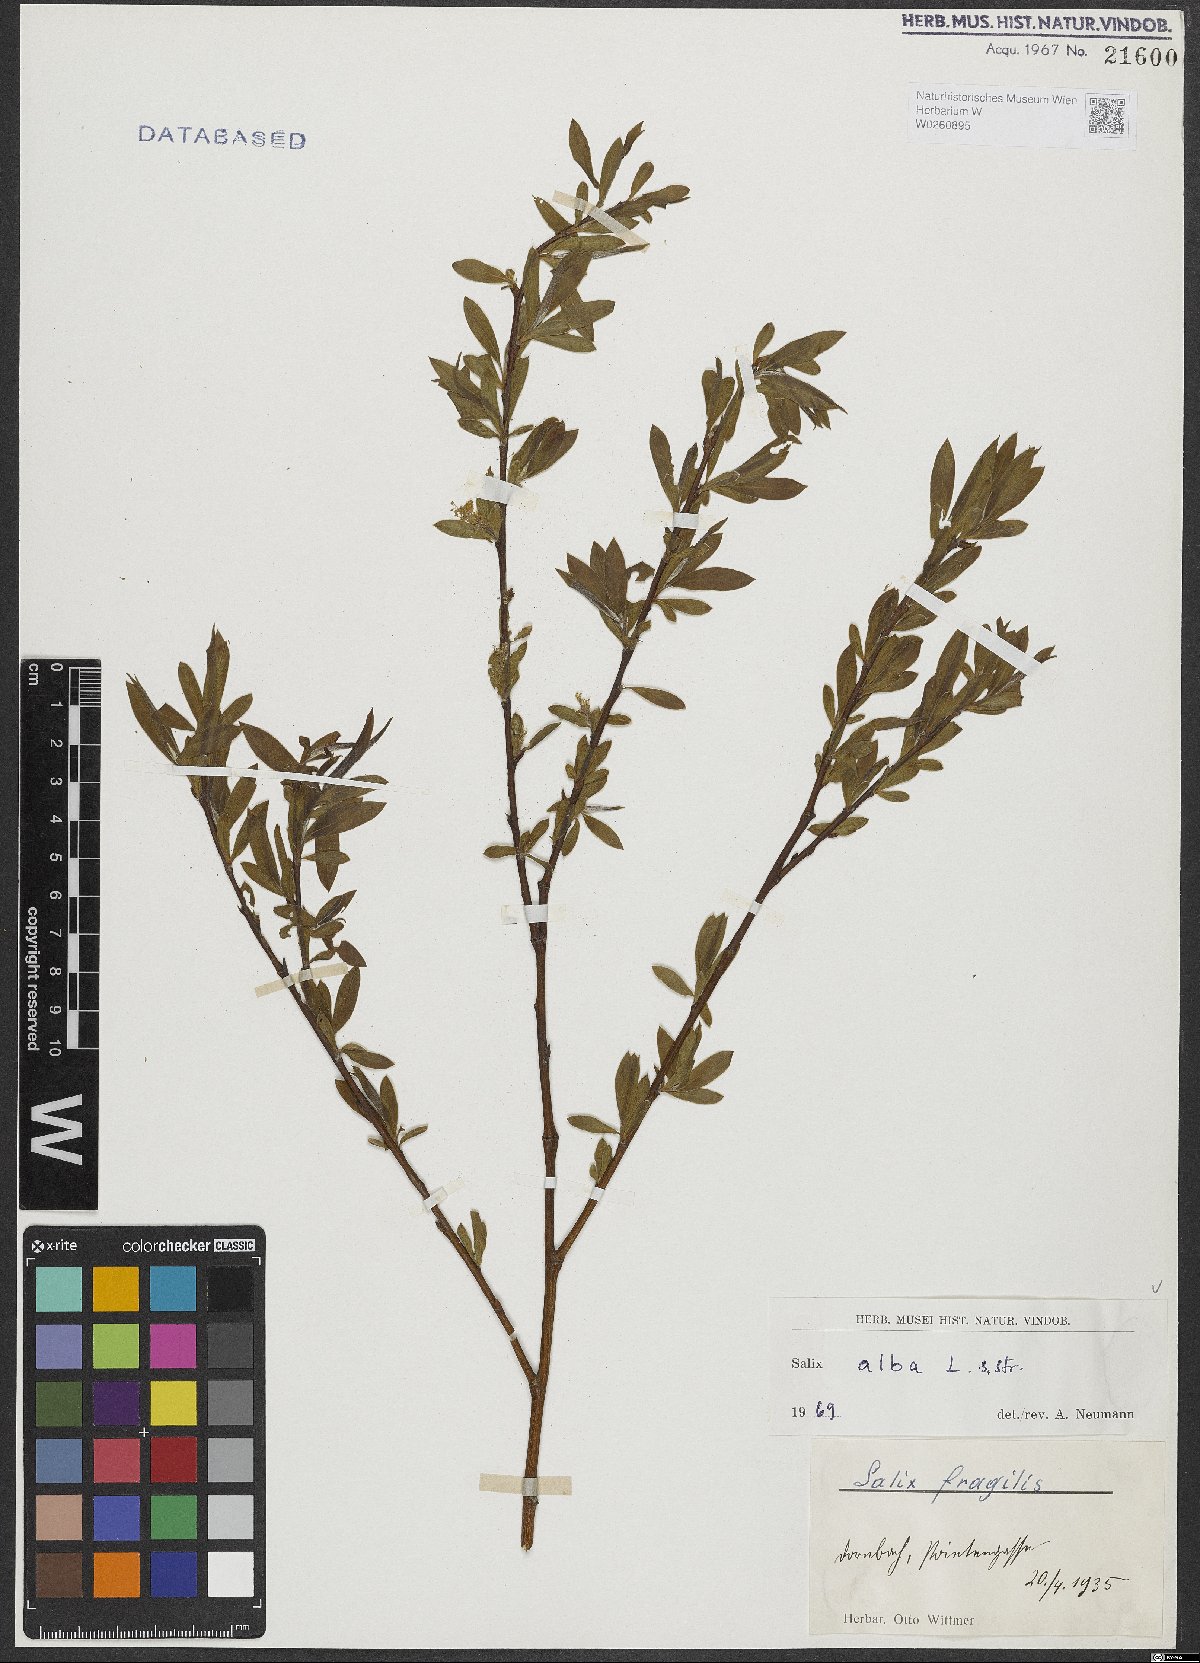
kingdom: Plantae
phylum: Tracheophyta
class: Magnoliopsida
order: Malpighiales
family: Salicaceae
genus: Salix
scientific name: Salix alba
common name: White willow
